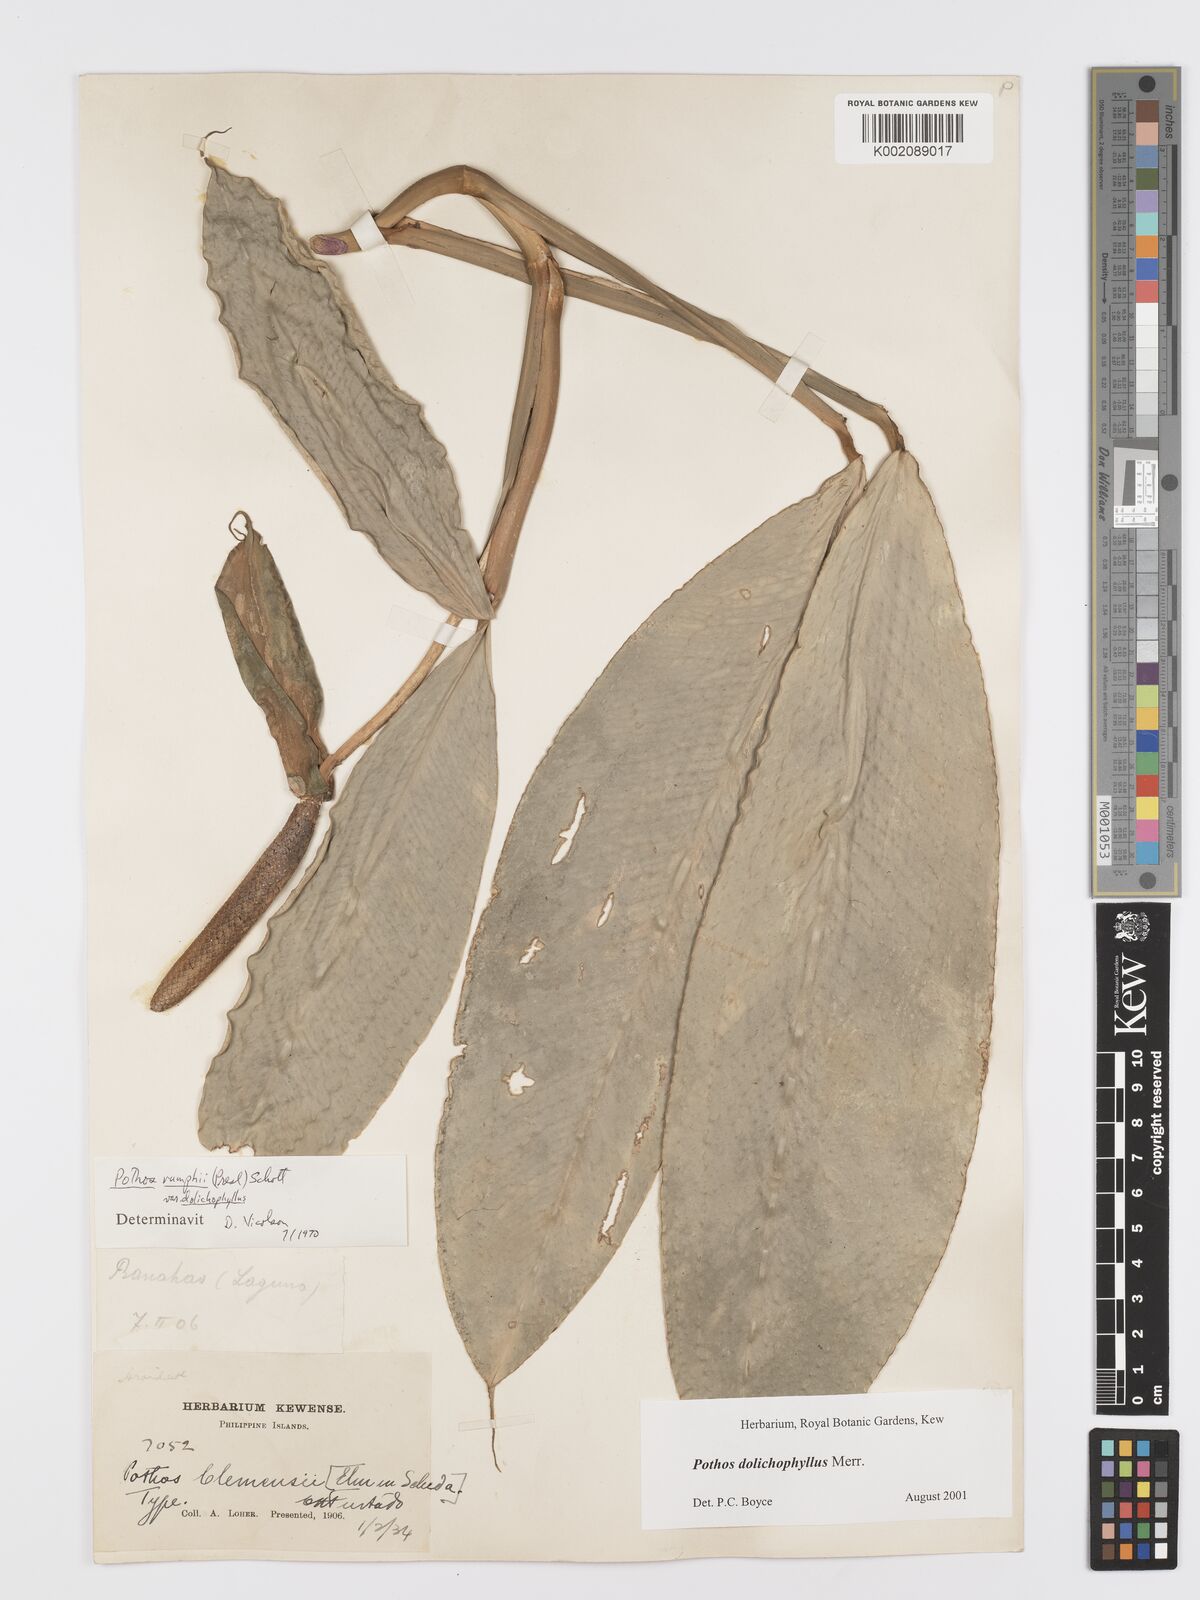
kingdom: Plantae
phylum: Tracheophyta
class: Liliopsida
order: Alismatales
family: Araceae
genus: Pothos
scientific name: Pothos dolichophyllus
